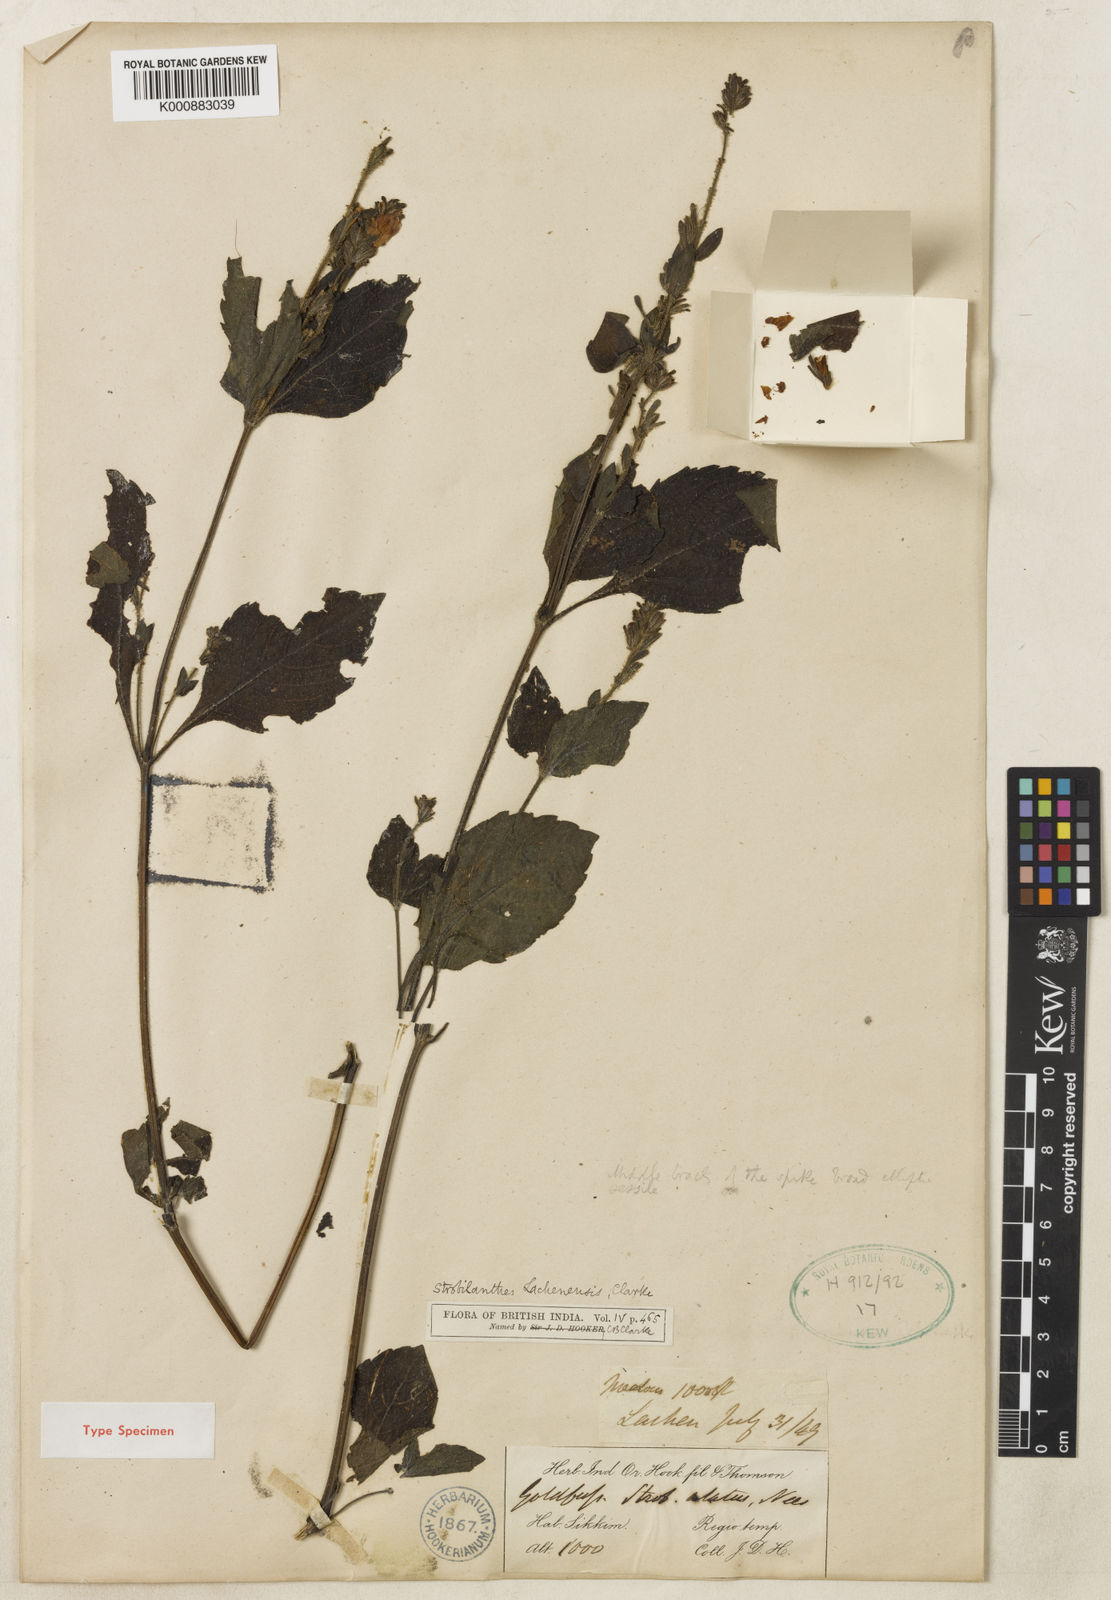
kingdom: Plantae
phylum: Tracheophyta
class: Magnoliopsida
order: Lamiales
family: Acanthaceae
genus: Strobilanthes
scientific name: Strobilanthes lachenensis
